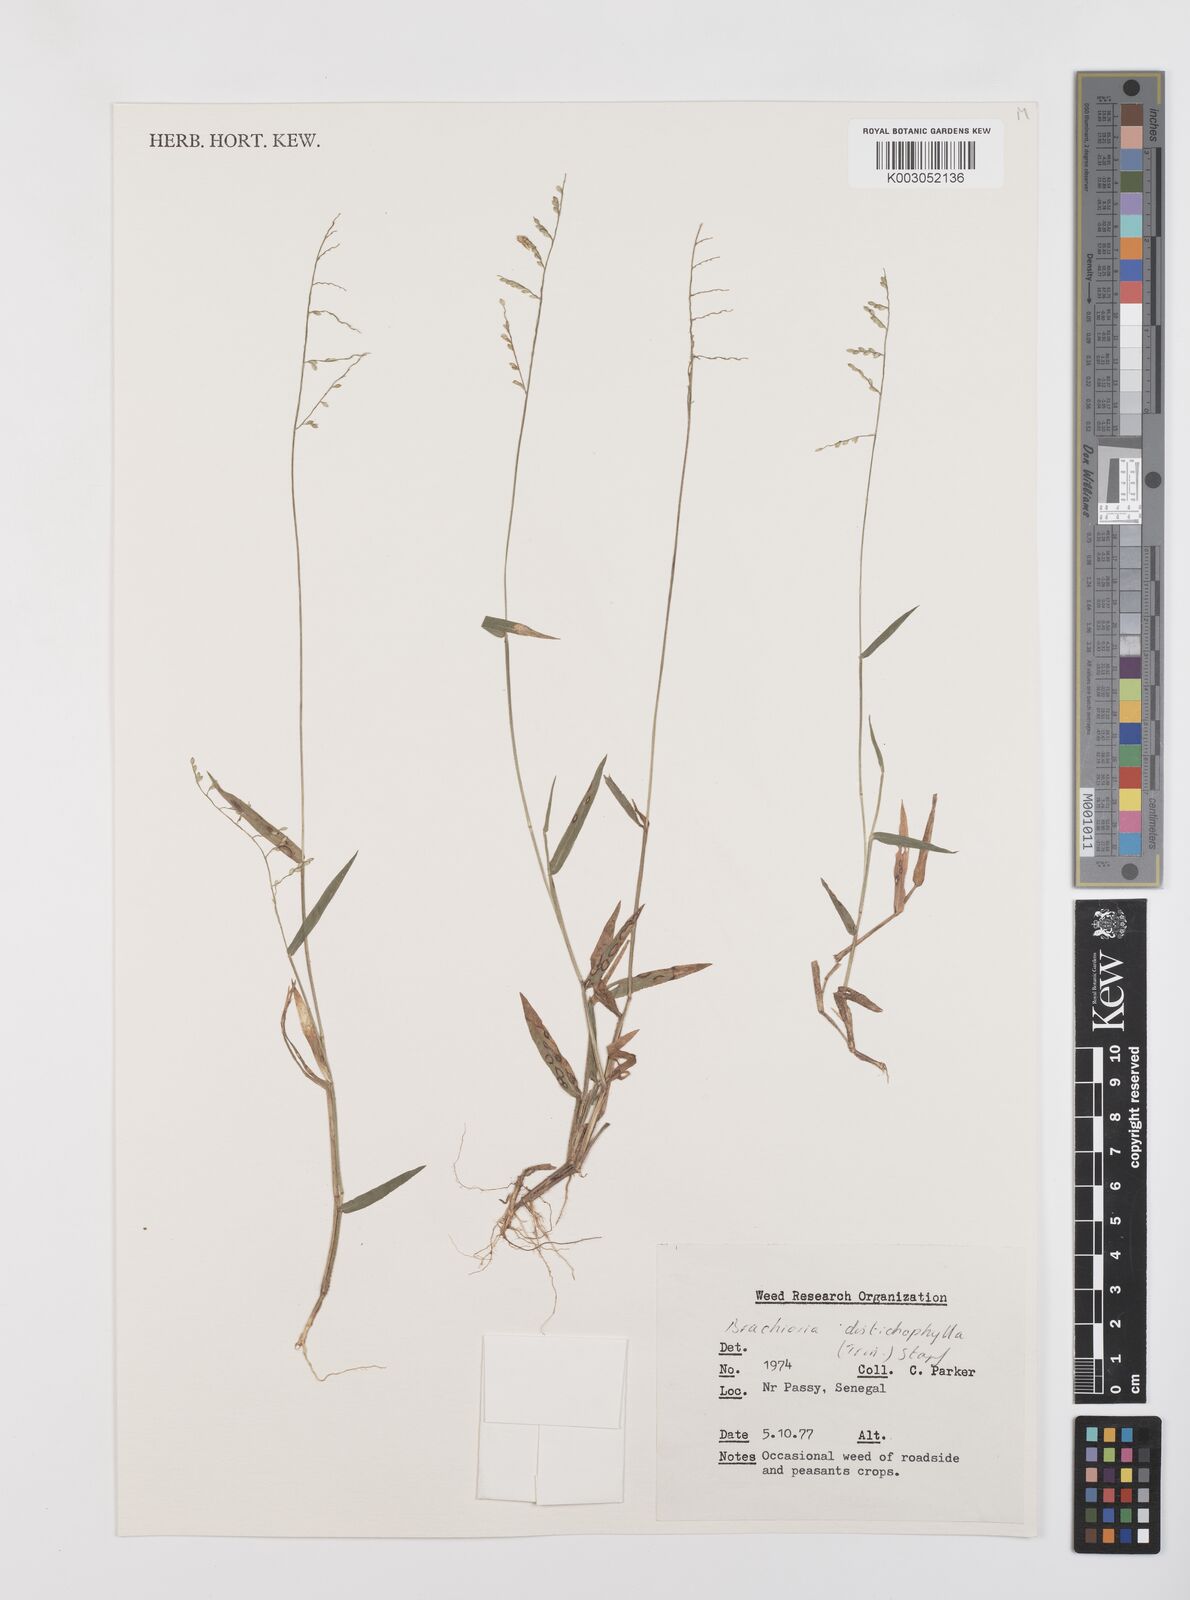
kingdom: Plantae
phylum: Tracheophyta
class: Liliopsida
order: Poales
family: Poaceae
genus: Urochloa
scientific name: Urochloa villosa
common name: Hairy signalgrass
